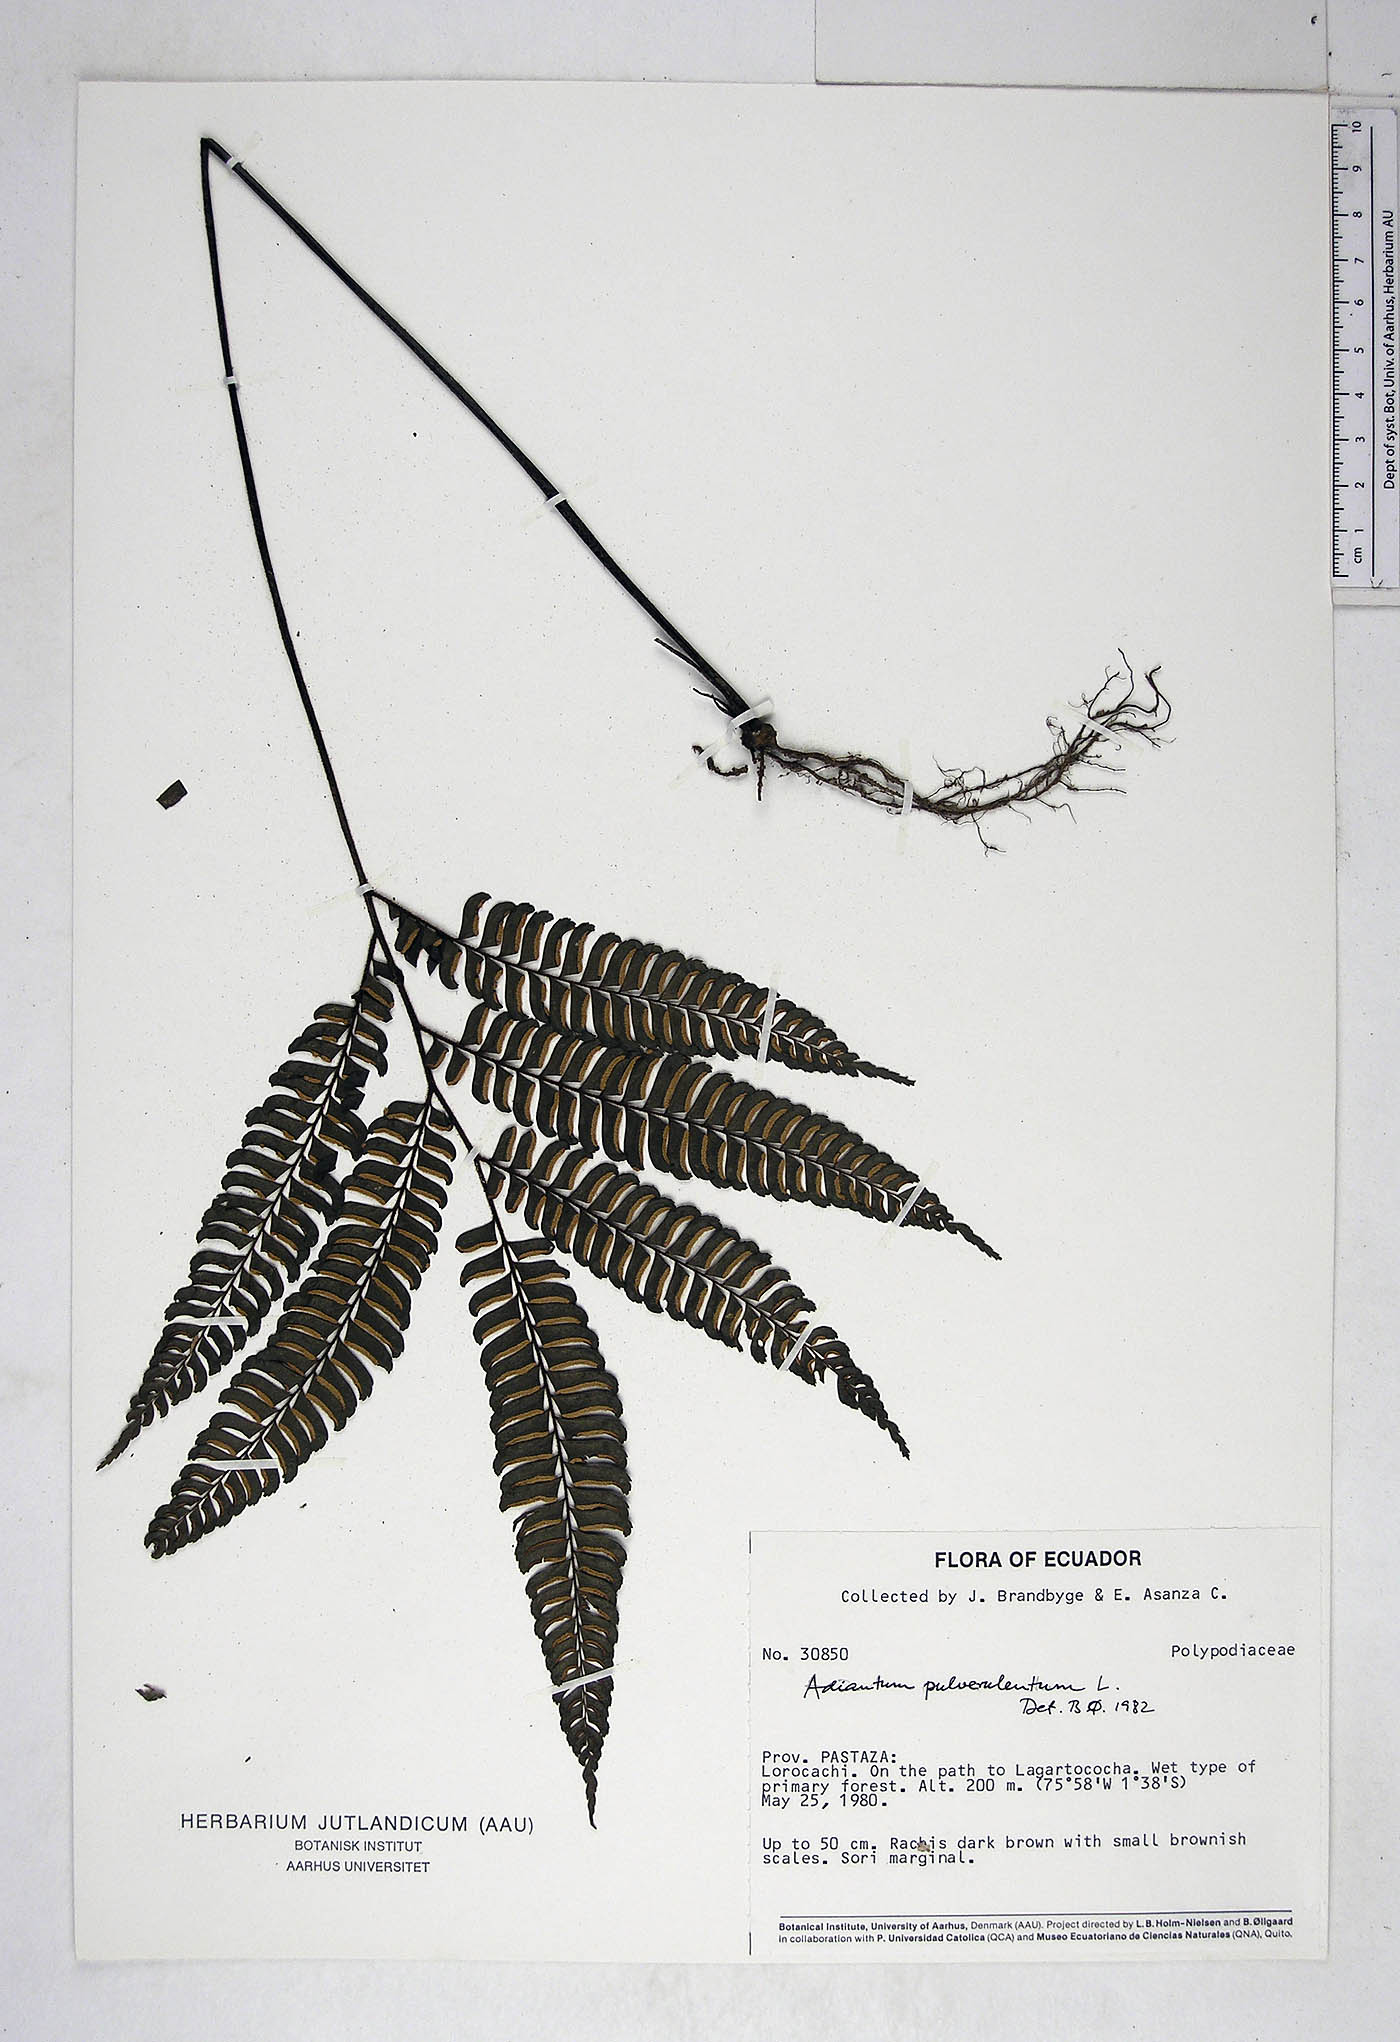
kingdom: Plantae
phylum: Tracheophyta
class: Polypodiopsida
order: Polypodiales
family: Pteridaceae
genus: Adiantum
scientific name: Adiantum pulverulentum
